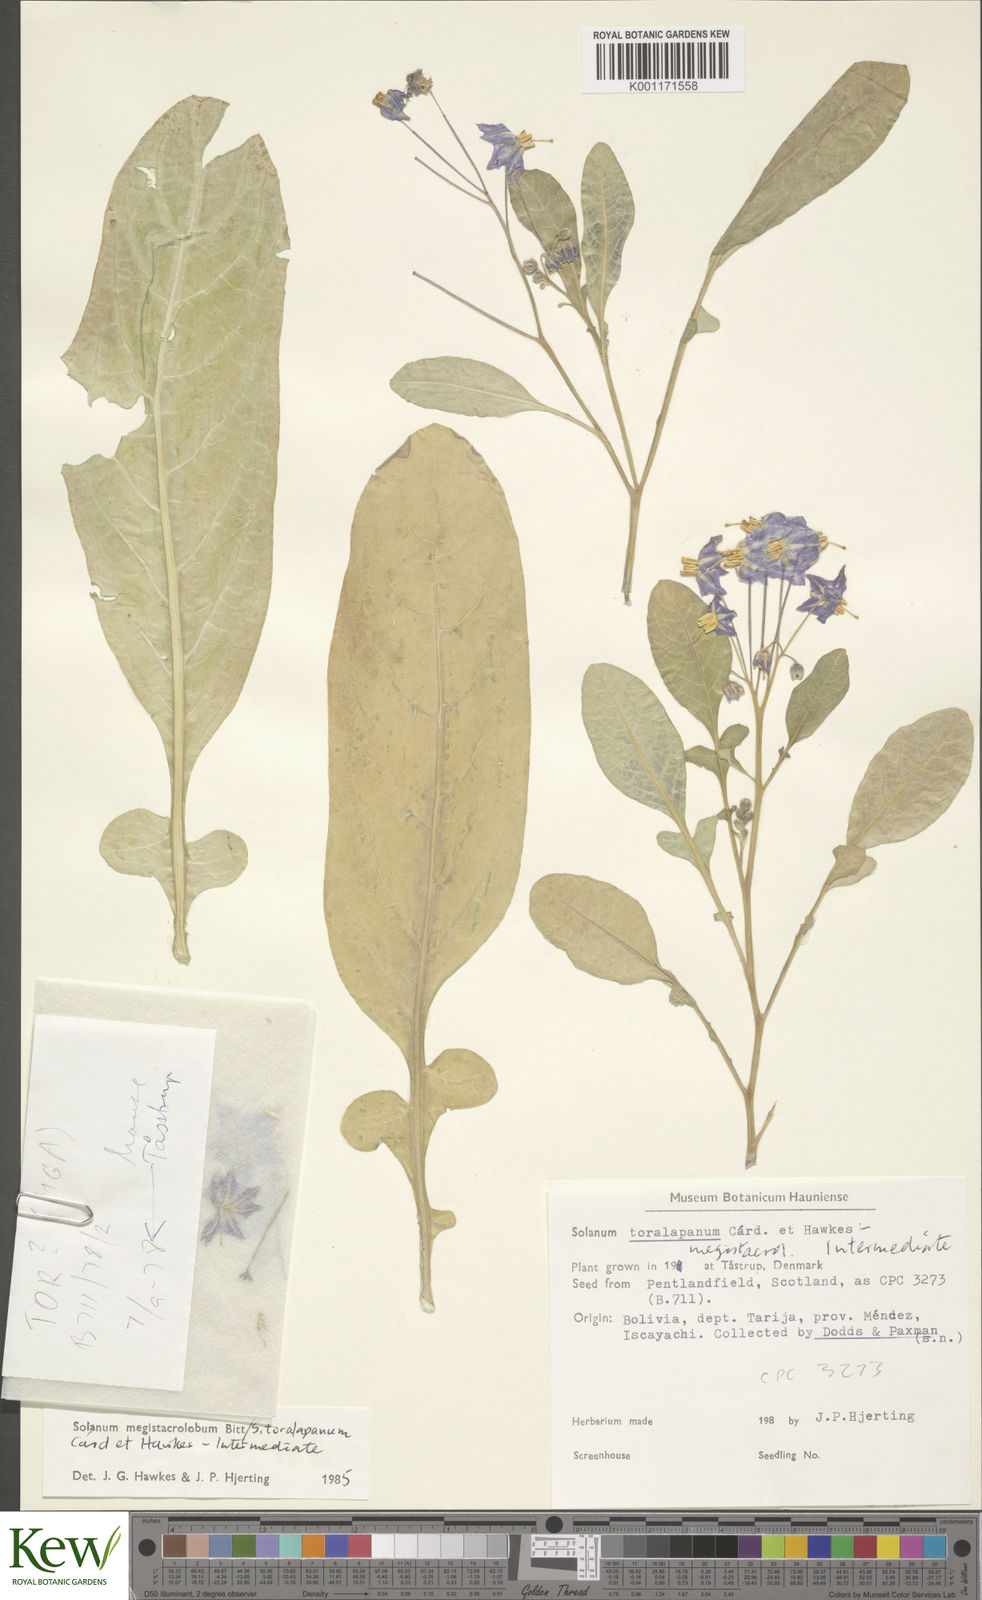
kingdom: Plantae
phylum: Tracheophyta
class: Magnoliopsida
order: Solanales
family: Solanaceae
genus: Solanum
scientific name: Solanum
